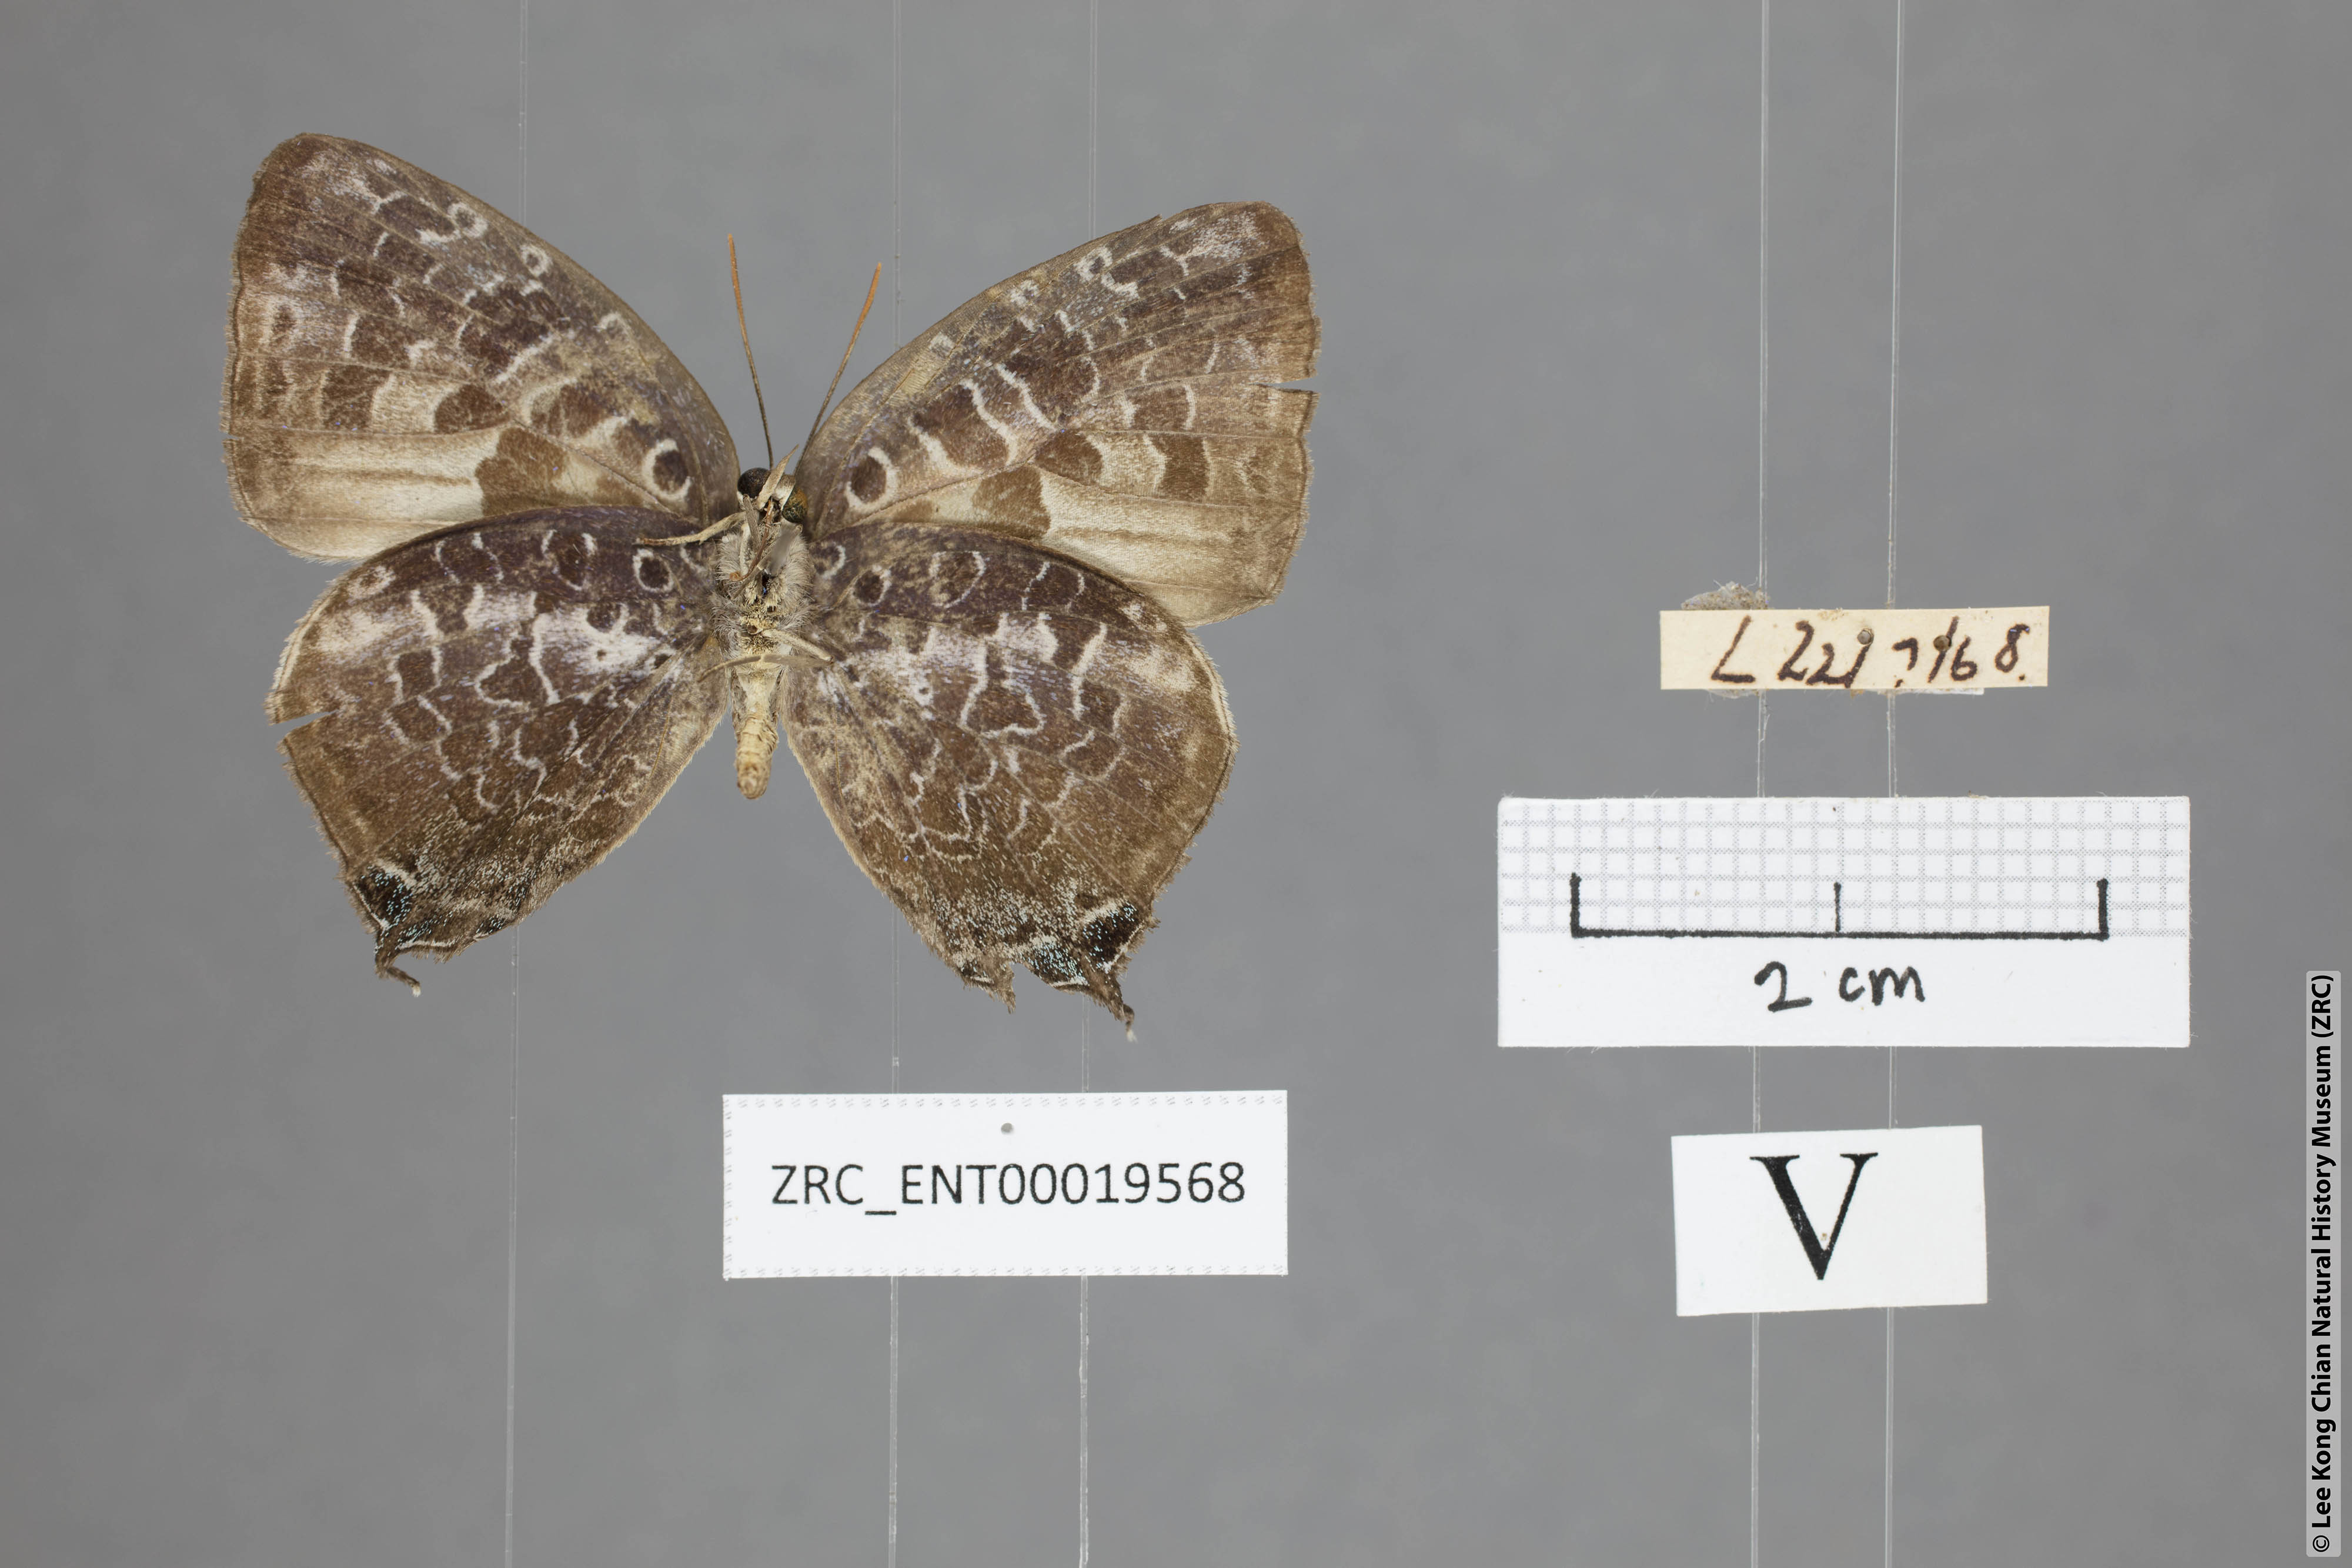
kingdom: Animalia
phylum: Arthropoda
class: Insecta
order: Lepidoptera
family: Lycaenidae
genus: Arhopala
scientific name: Arhopala ijauensis
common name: White-banded oakblue
